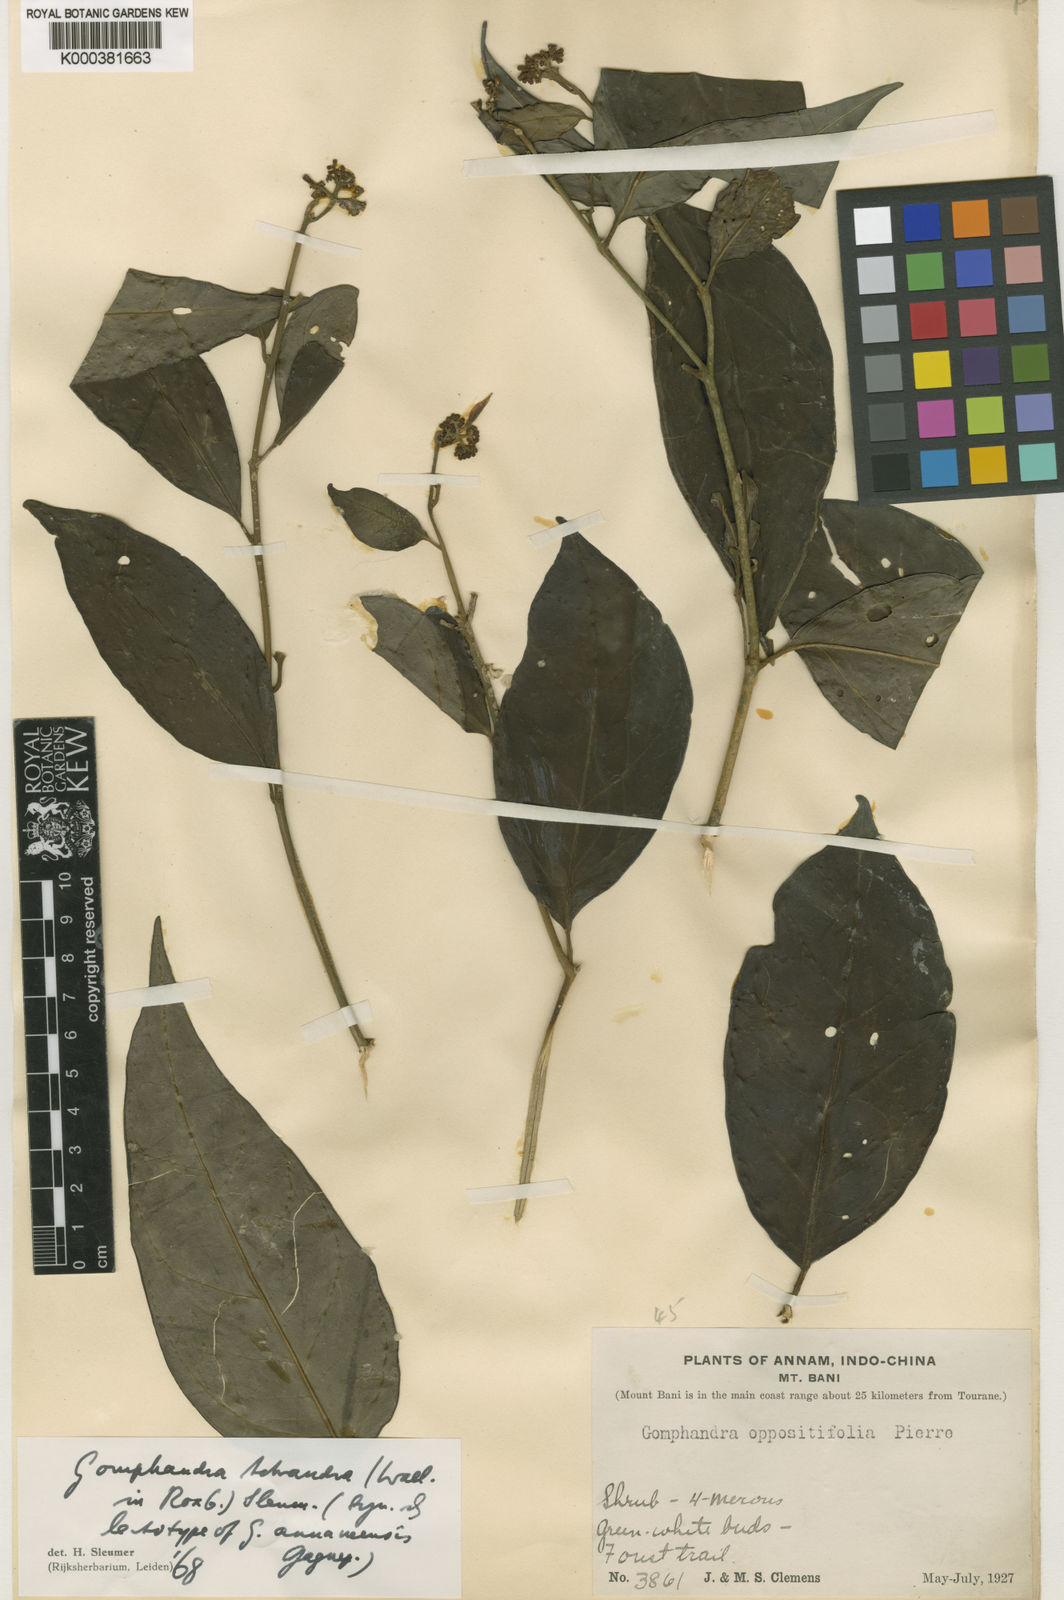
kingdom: Plantae
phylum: Tracheophyta
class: Magnoliopsida
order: Cardiopteridales
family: Stemonuraceae
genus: Gomphandra
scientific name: Gomphandra
